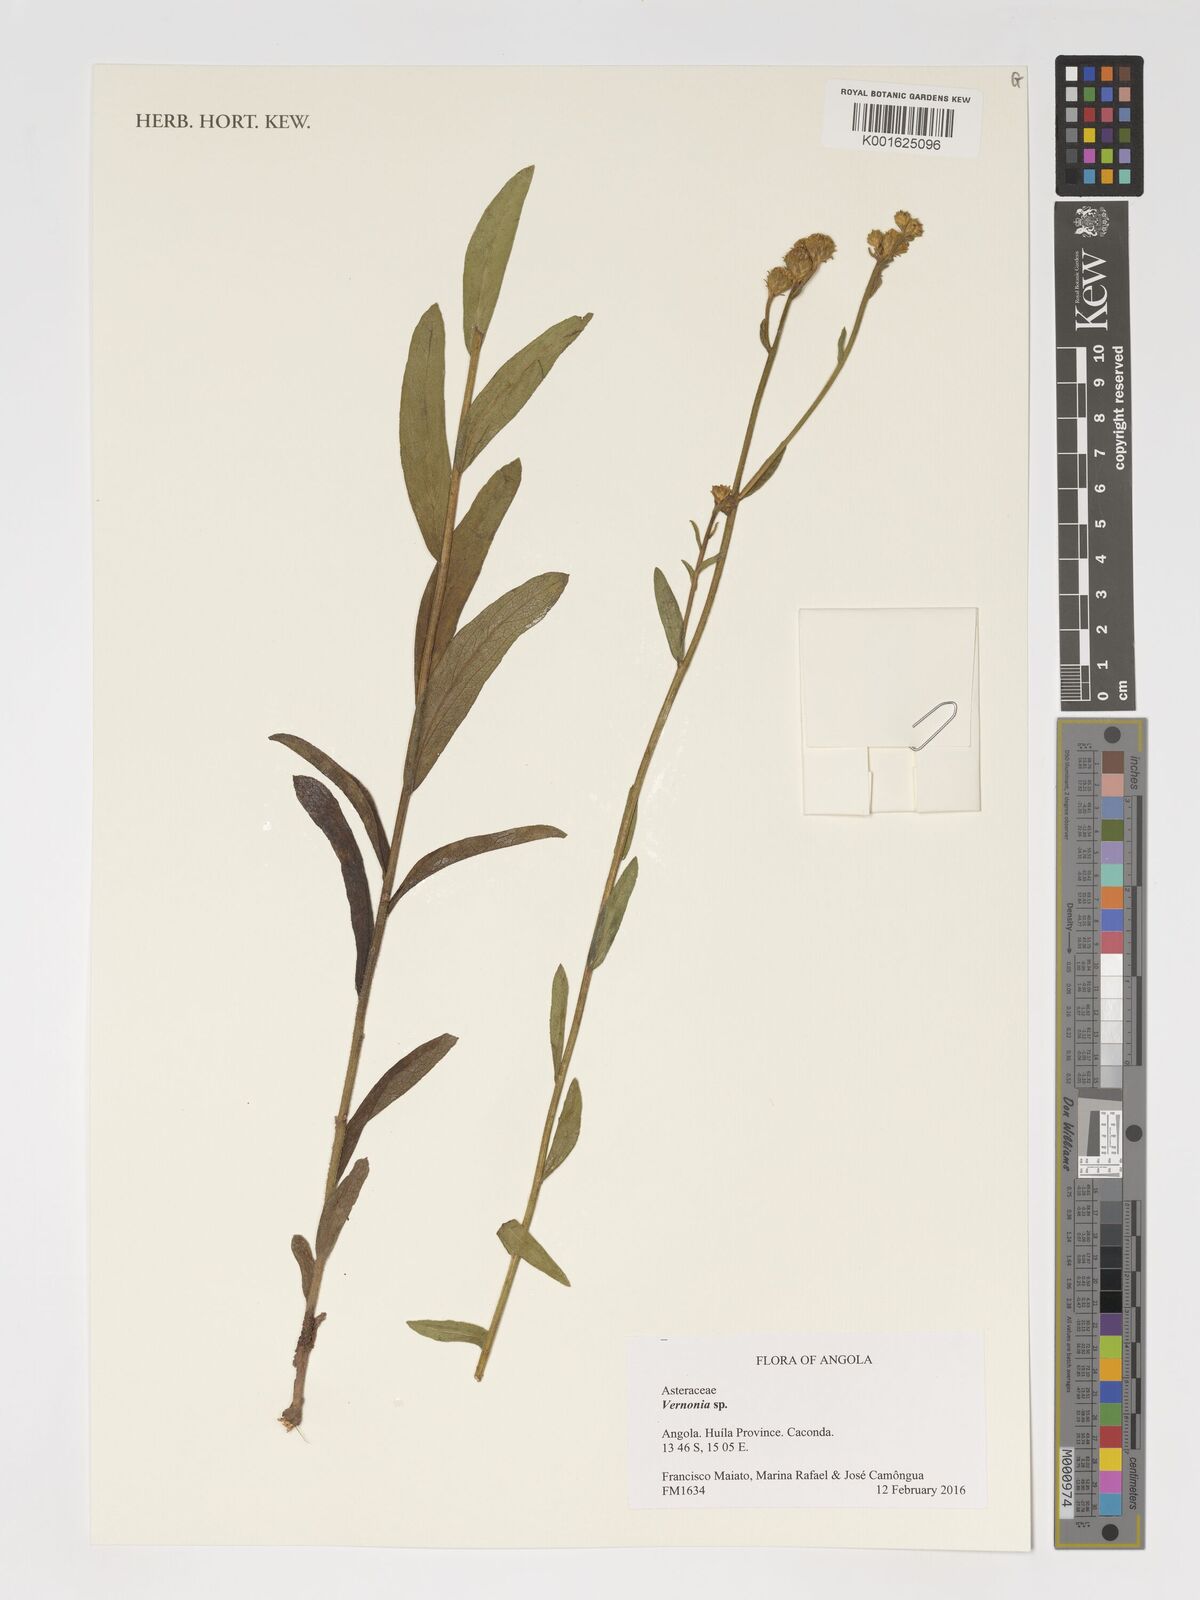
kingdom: Plantae
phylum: Tracheophyta
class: Magnoliopsida
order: Asterales
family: Asteraceae
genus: Vernonia
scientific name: Vernonia
